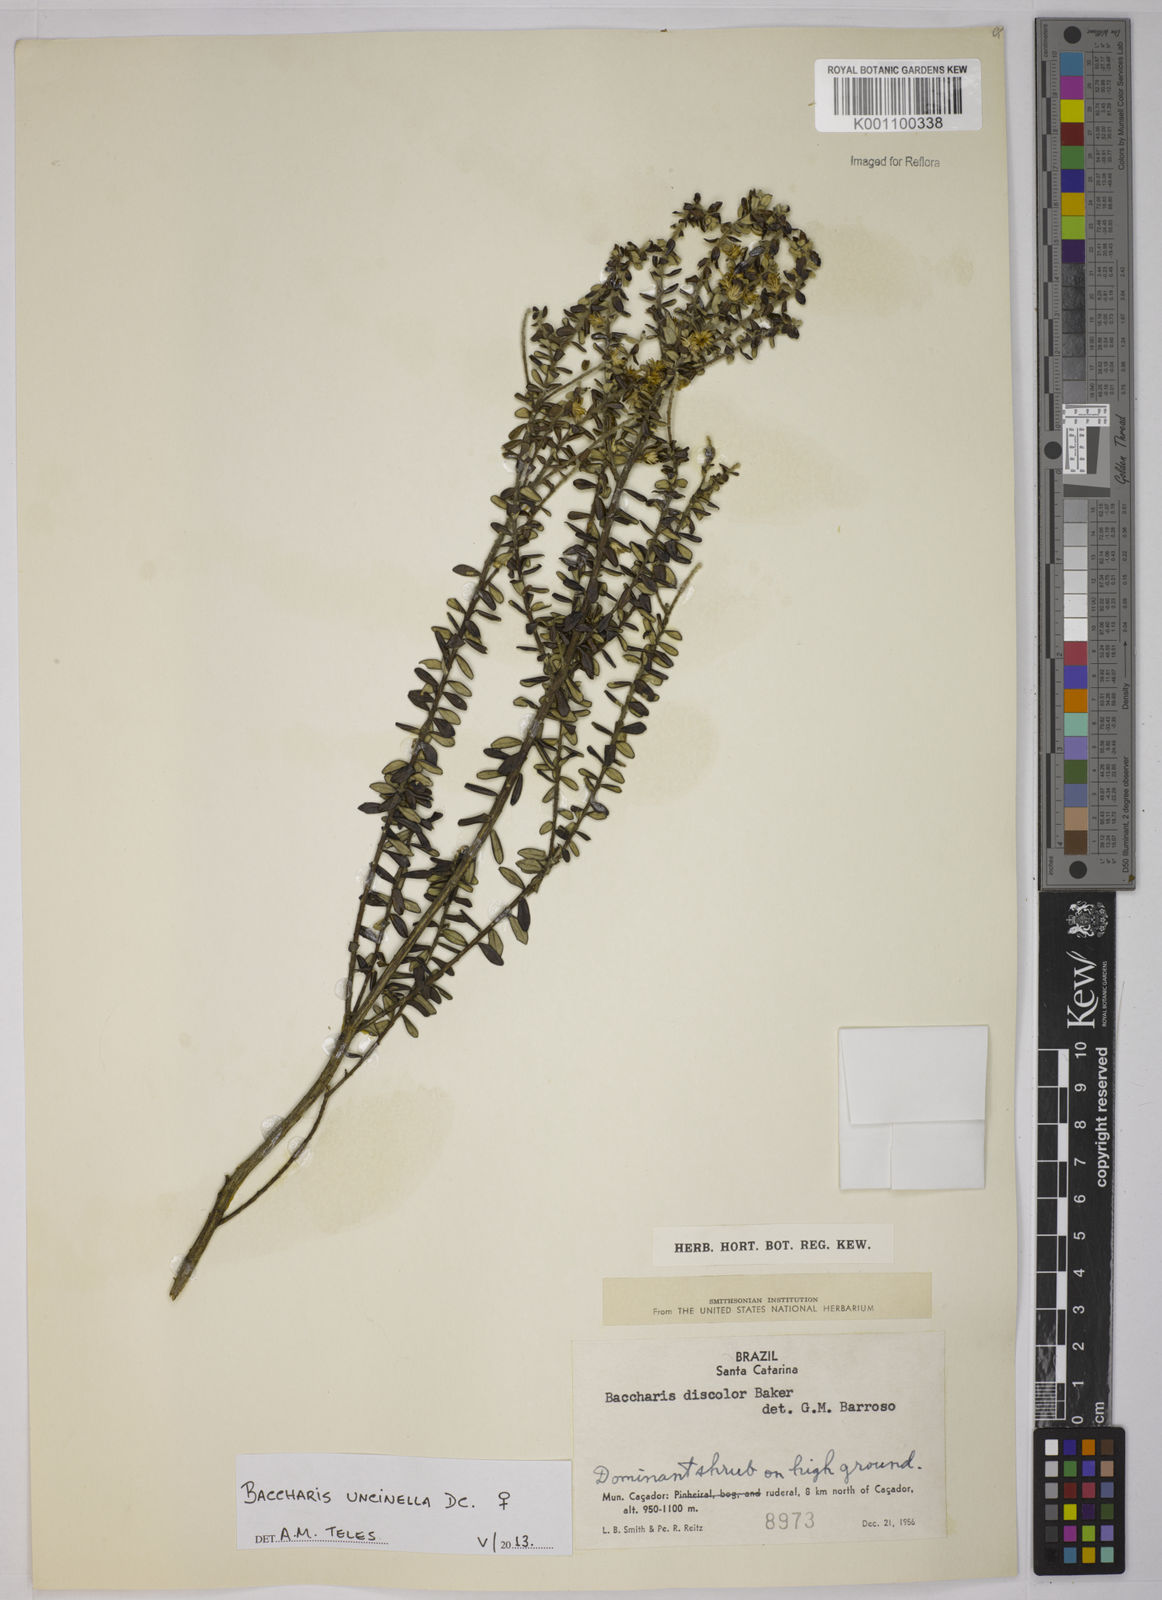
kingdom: Plantae
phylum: Tracheophyta
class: Magnoliopsida
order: Asterales
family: Asteraceae
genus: Baccharis
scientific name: Baccharis uncinella
